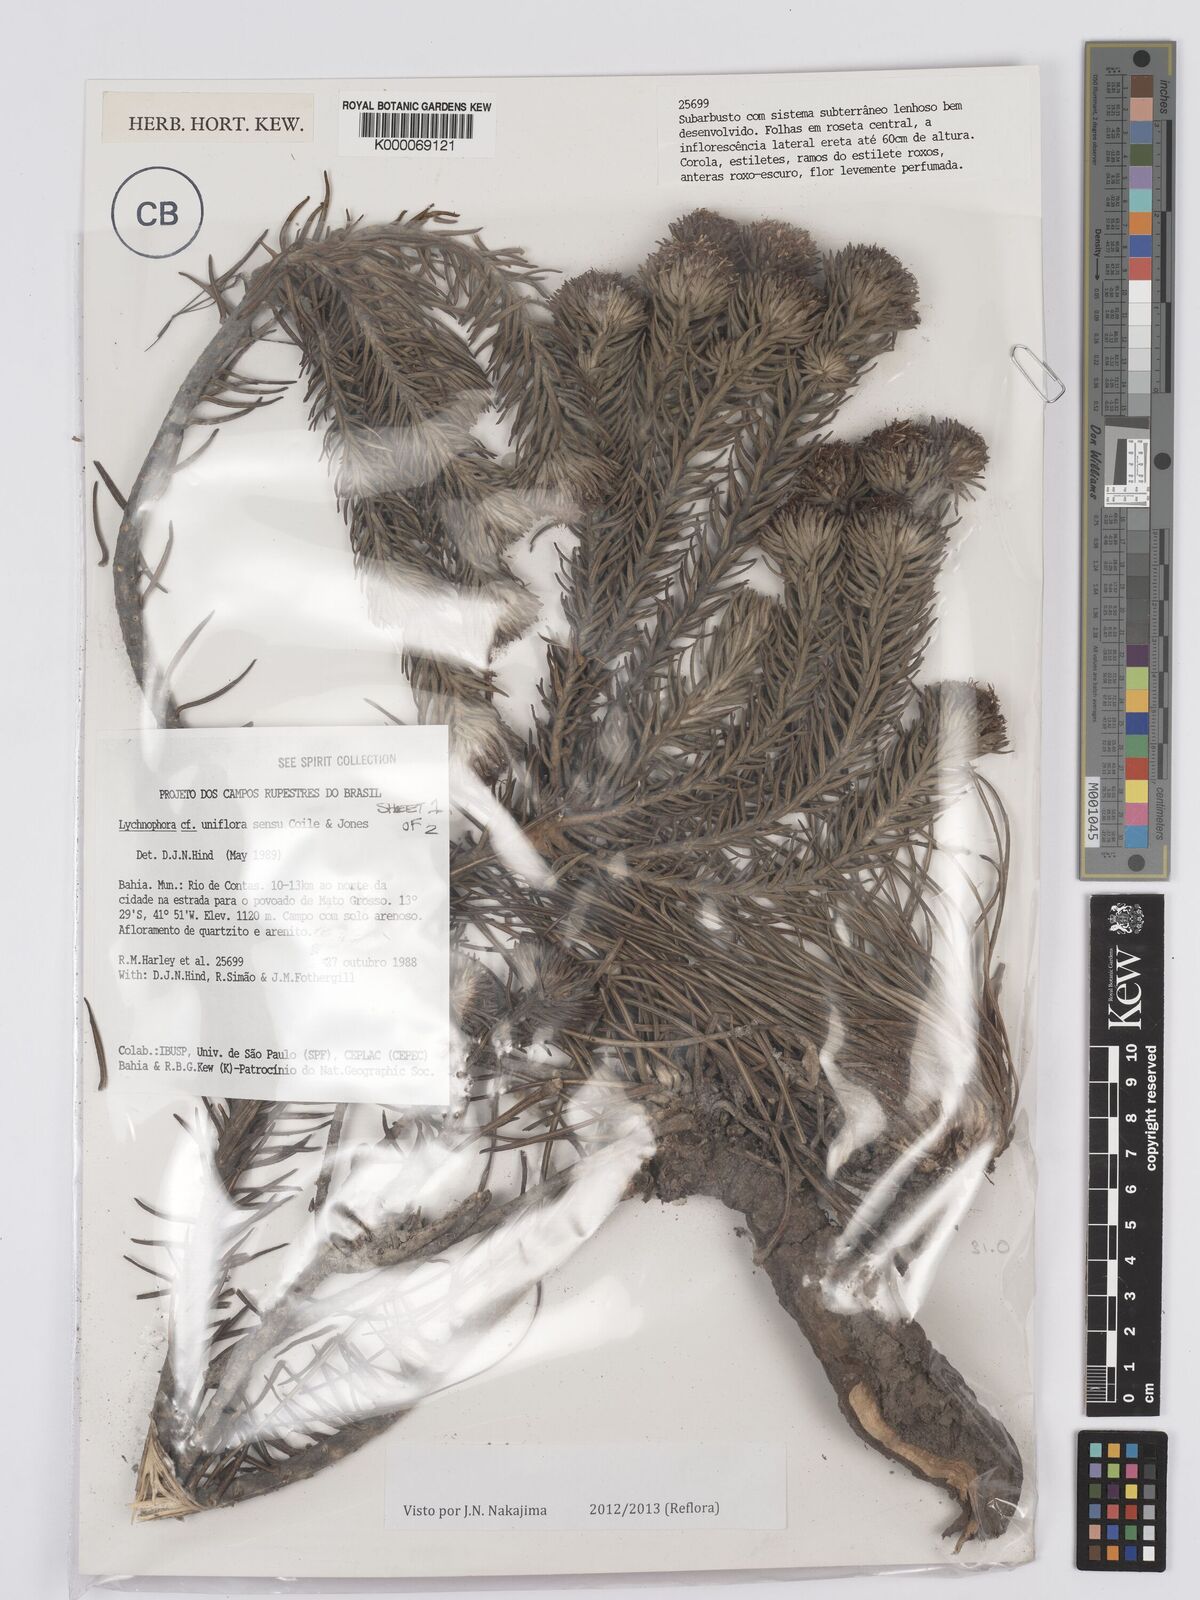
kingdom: Plantae
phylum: Tracheophyta
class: Magnoliopsida
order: Asterales
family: Asteraceae
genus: Lychnophora
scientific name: Lychnophora uniflora
